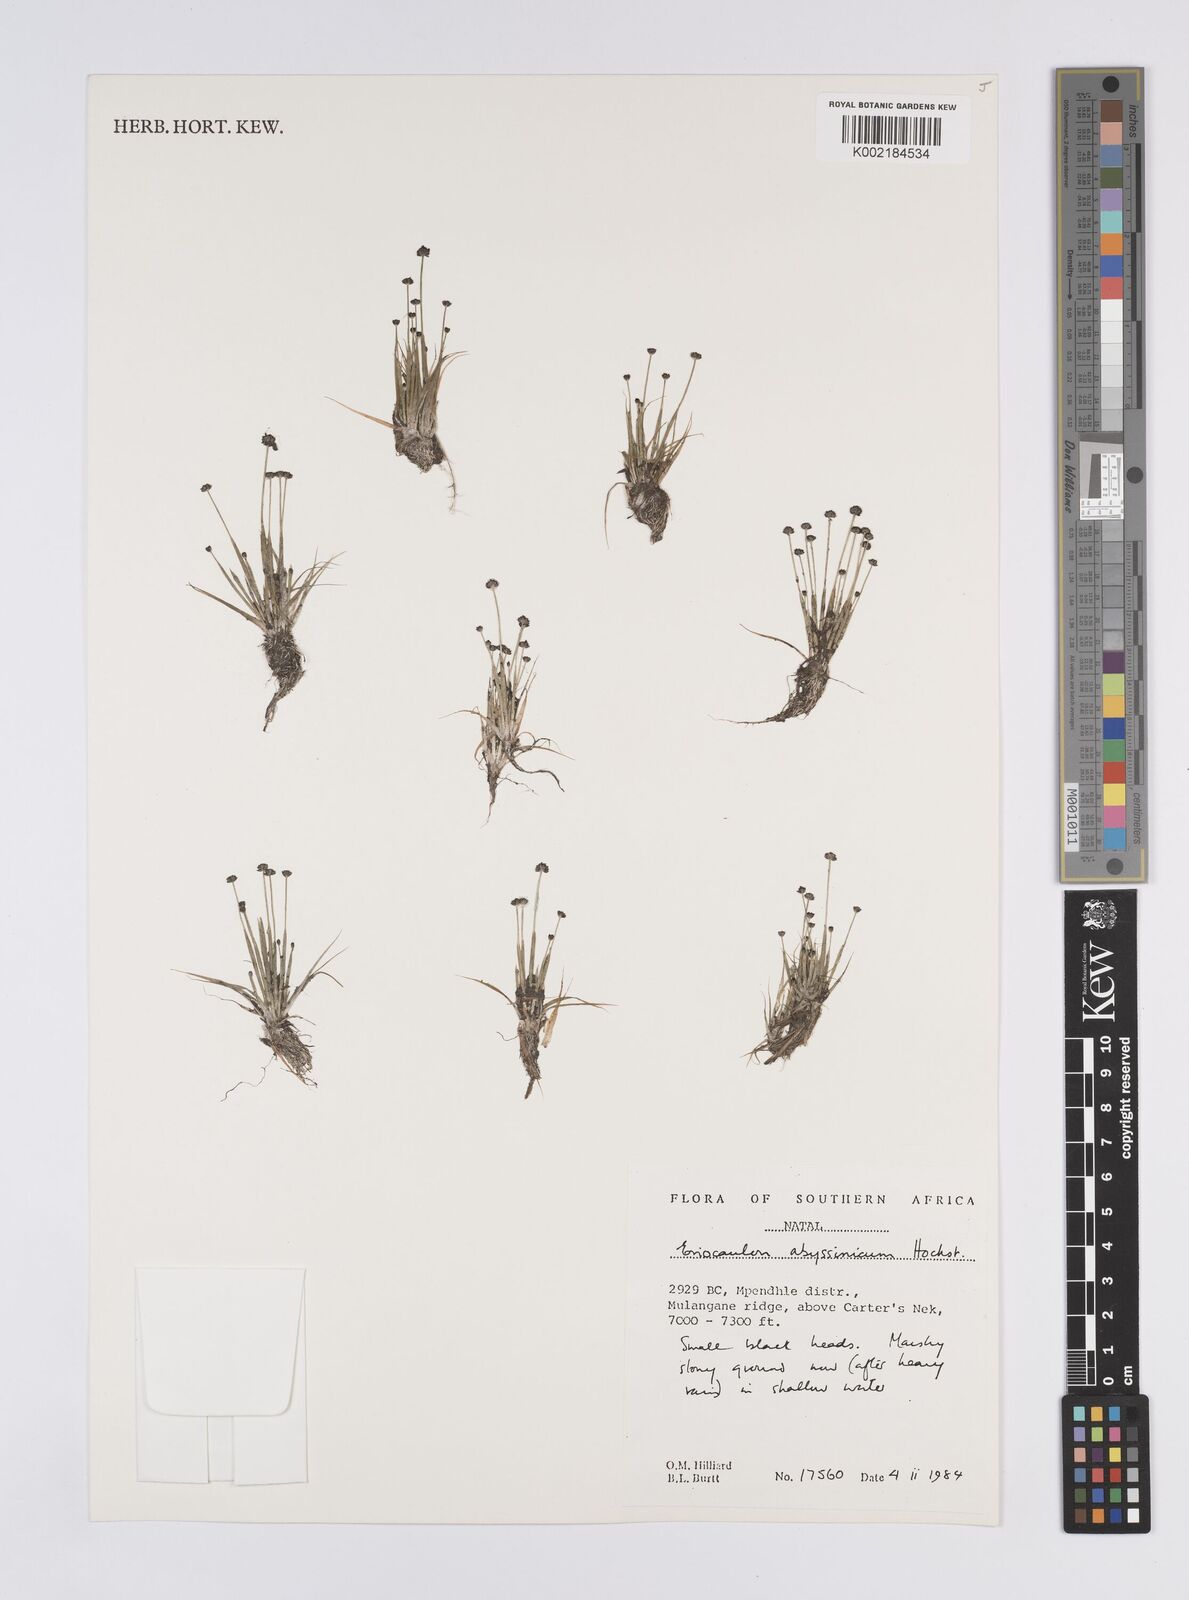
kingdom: Plantae
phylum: Tracheophyta
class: Liliopsida
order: Poales
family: Eriocaulaceae
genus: Eriocaulon
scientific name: Eriocaulon hydrophilum
